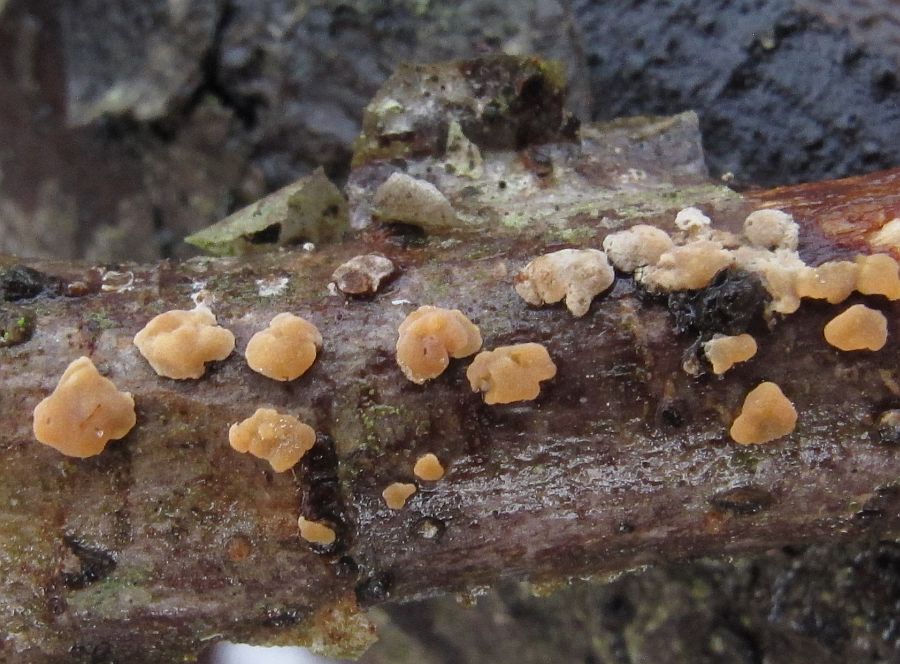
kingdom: Fungi
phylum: Basidiomycota
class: Agaricomycetes
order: Russulales
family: Peniophoraceae
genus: Peniophora
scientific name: Peniophora incarnata
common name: laksefarvet voksskind
